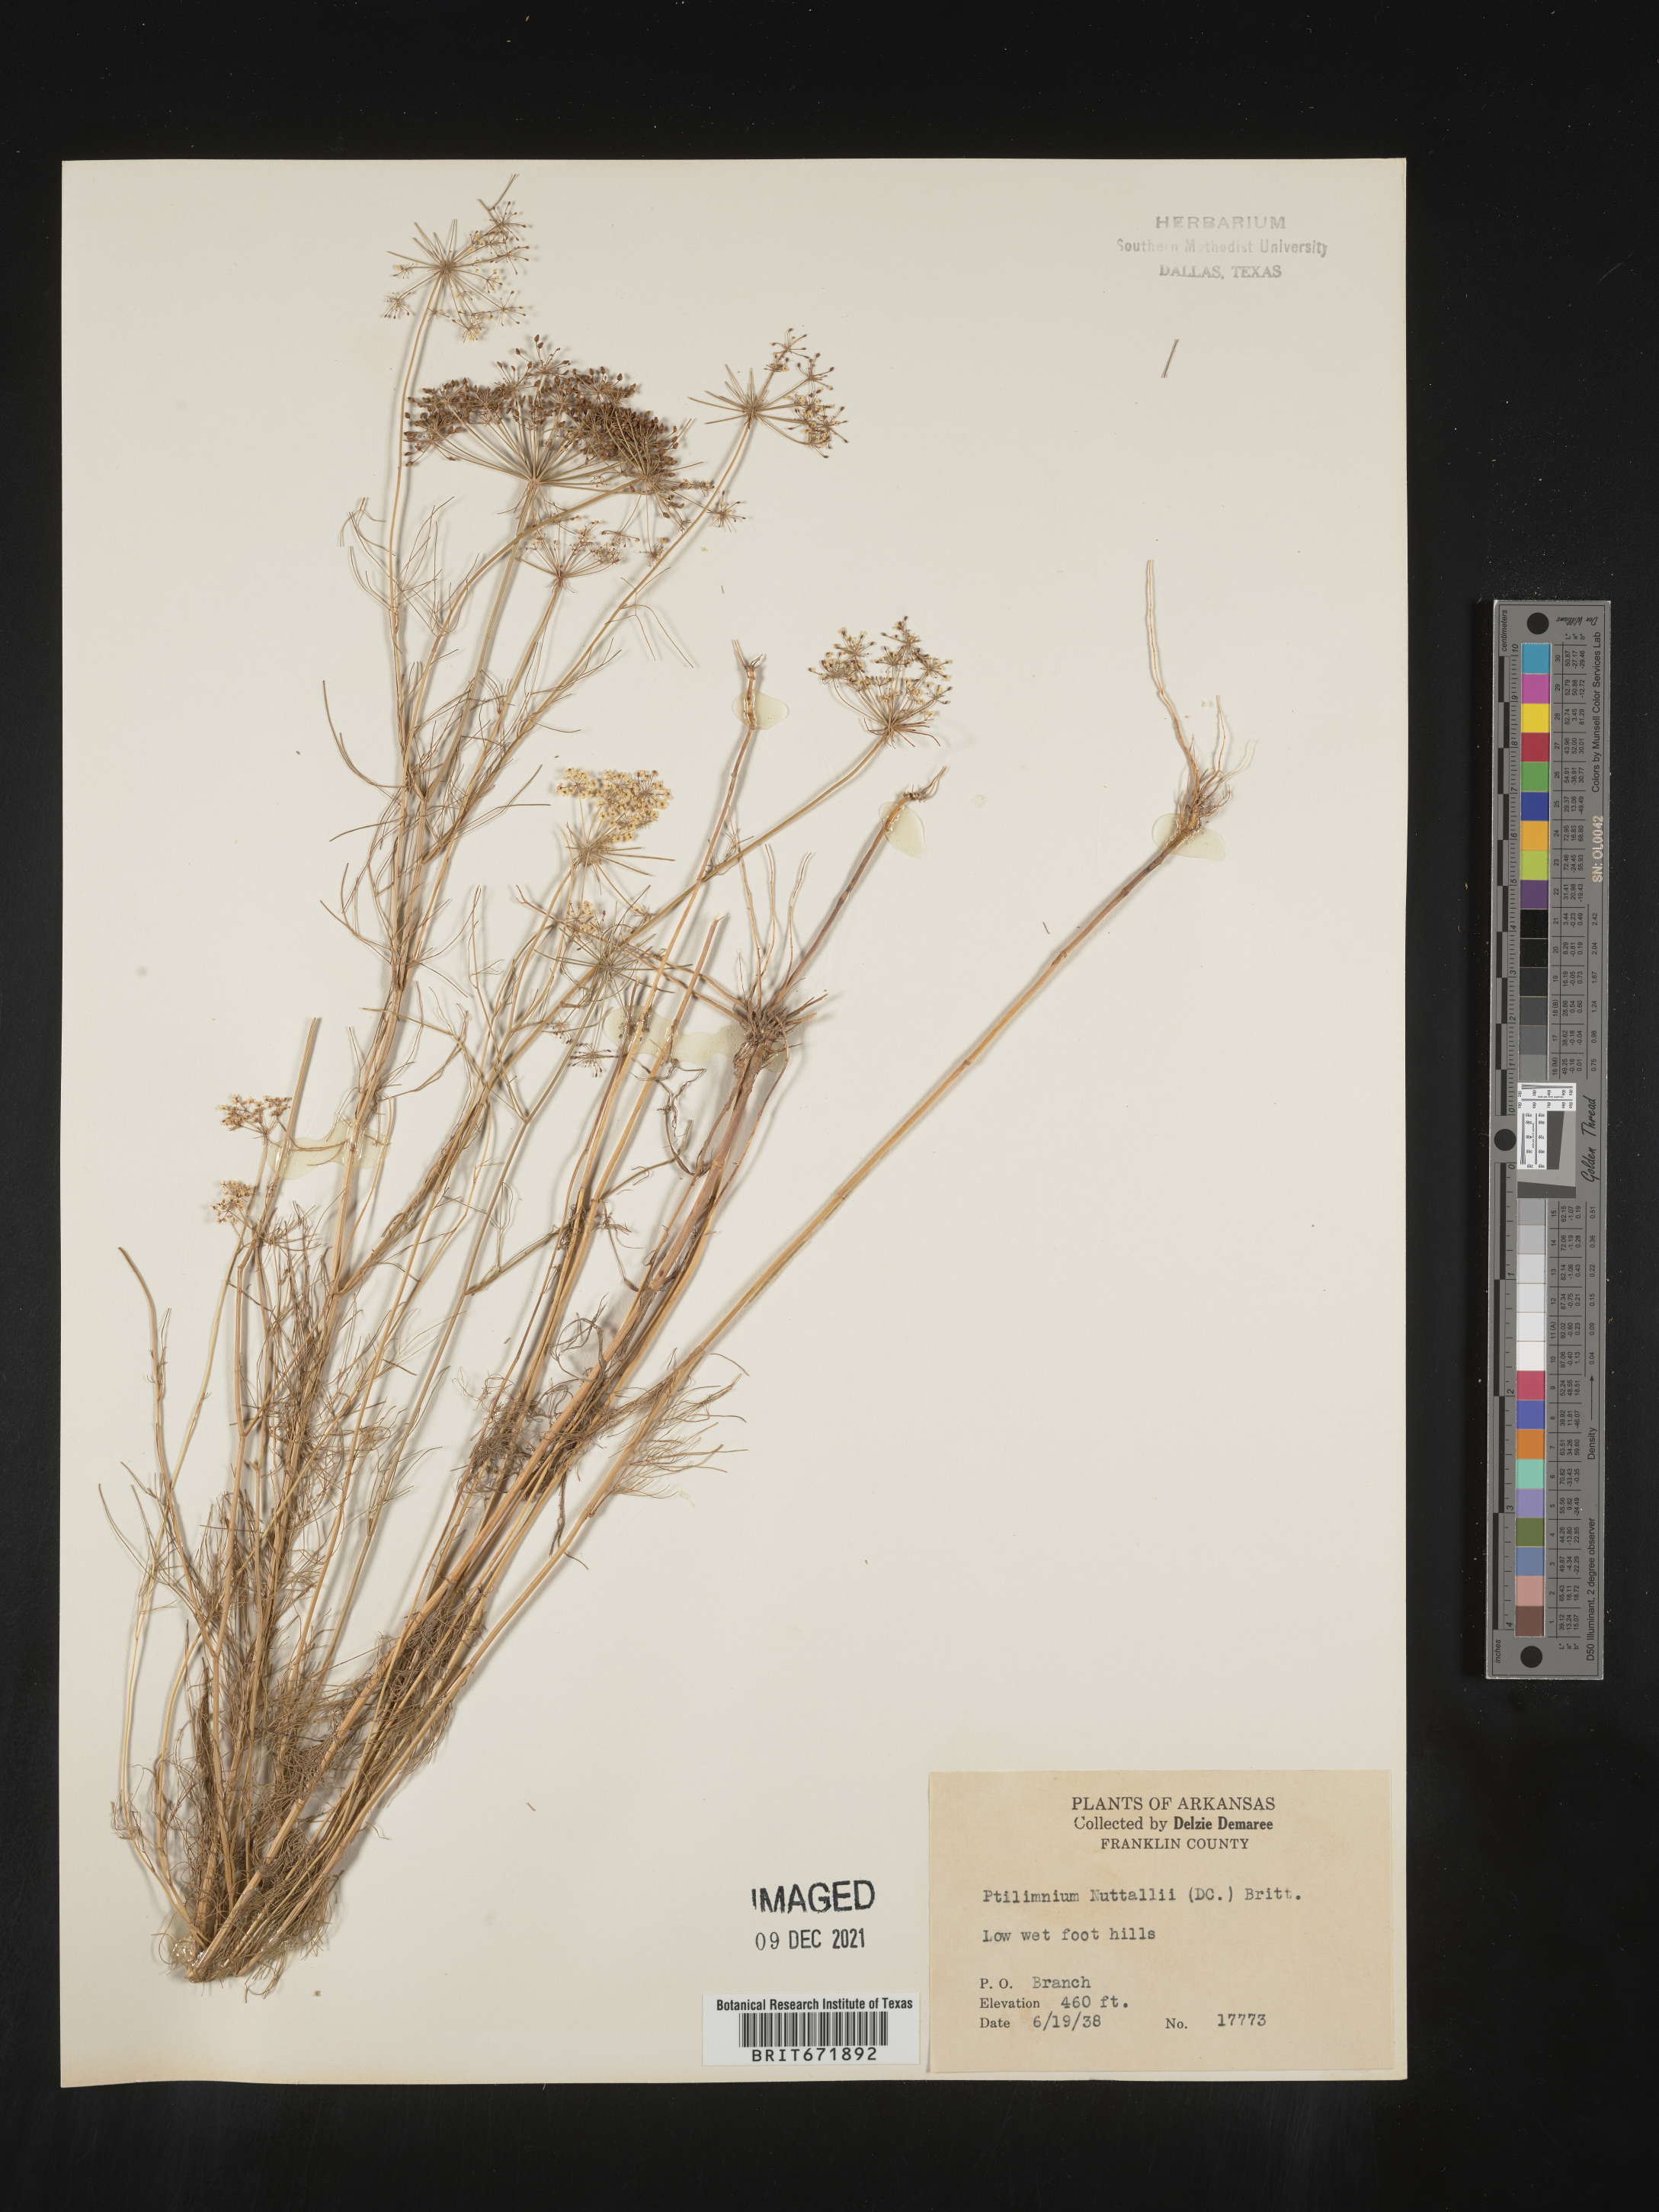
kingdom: Plantae
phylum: Tracheophyta
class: Magnoliopsida
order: Apiales
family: Apiaceae
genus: Ptilimnium
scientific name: Ptilimnium nuttallii
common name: Ozark bishop's-weed
